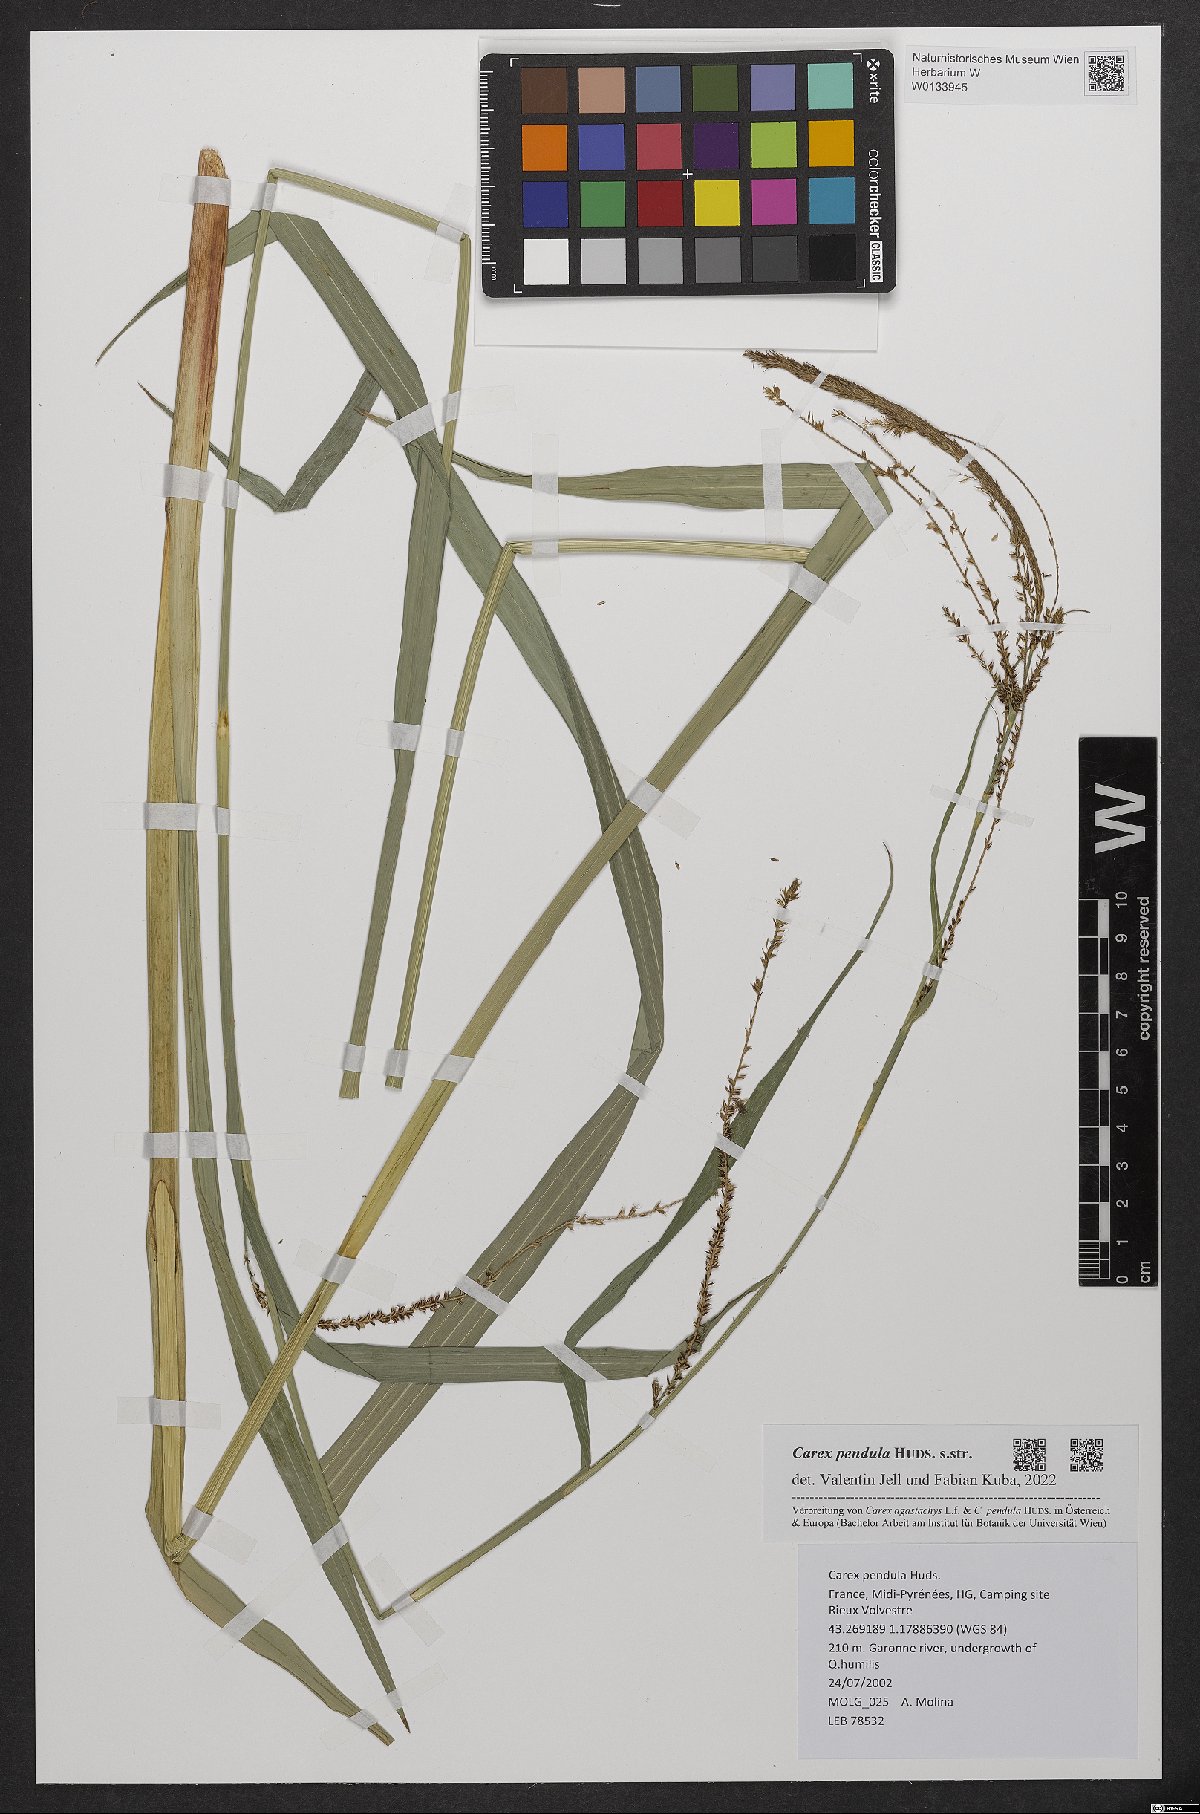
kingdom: Plantae
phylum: Tracheophyta
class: Liliopsida
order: Poales
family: Cyperaceae
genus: Carex
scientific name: Carex pendula
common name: Pendulous sedge
